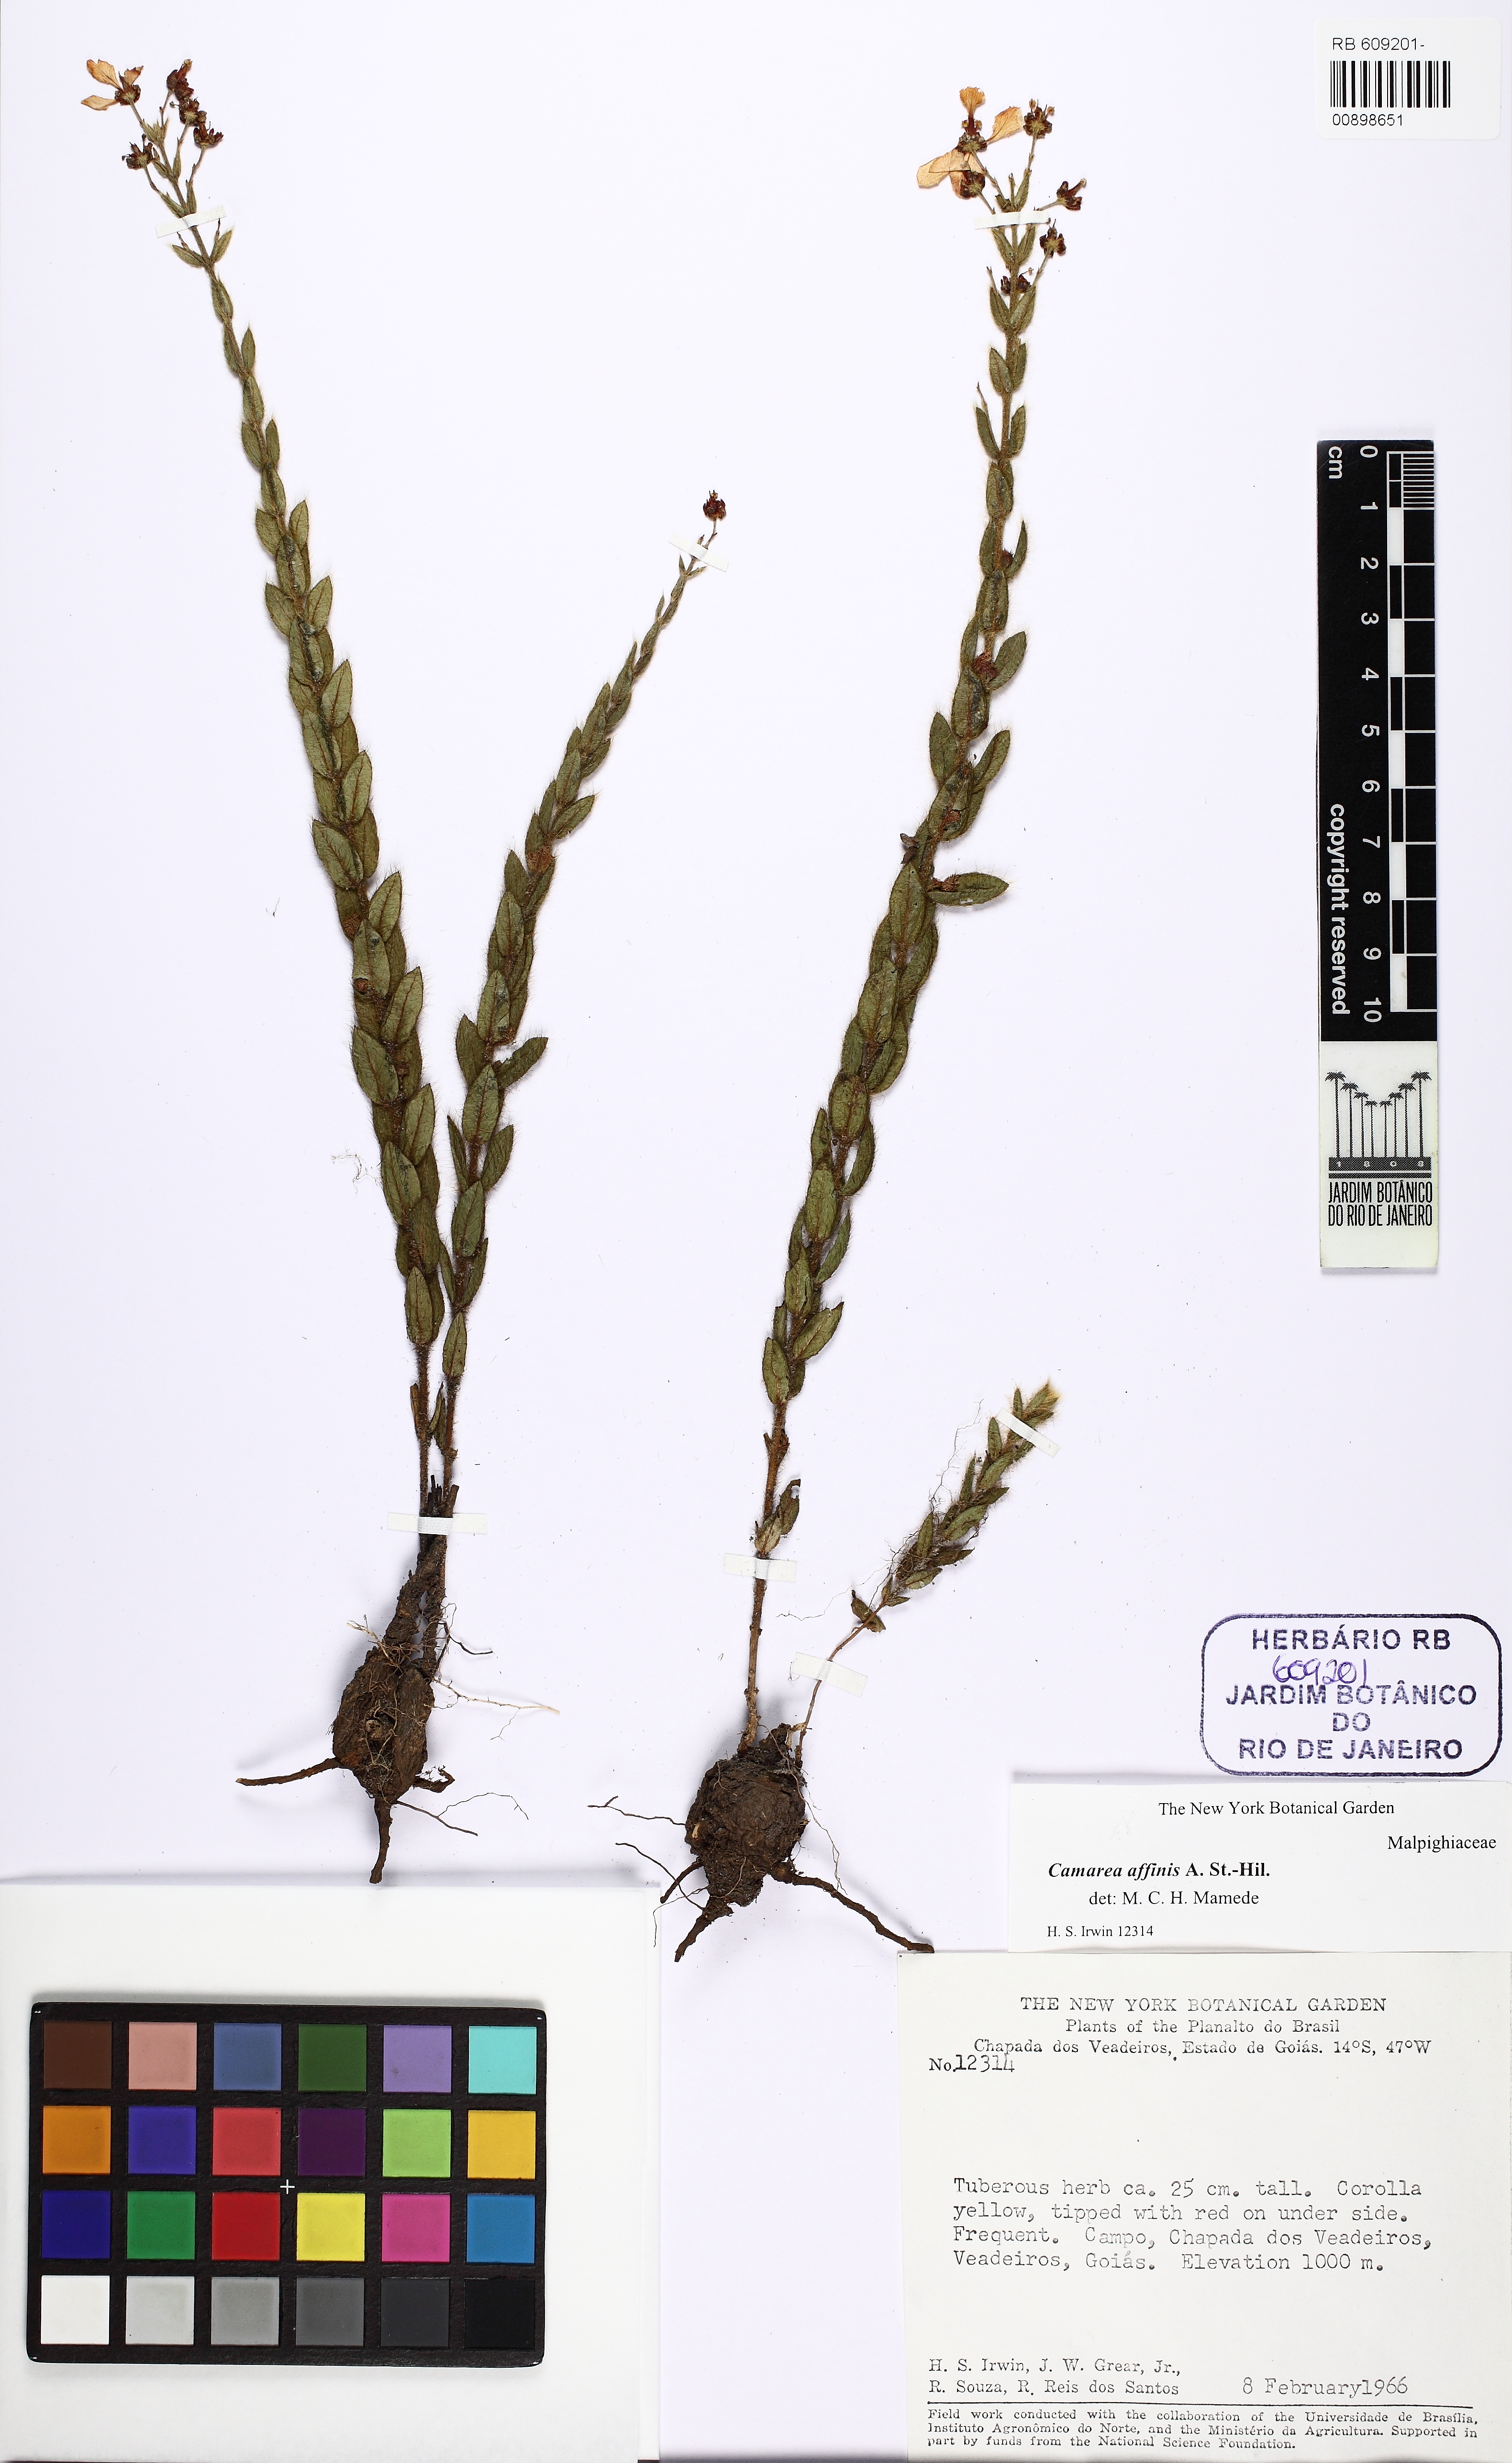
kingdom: Plantae
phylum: Tracheophyta
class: Magnoliopsida
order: Malpighiales
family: Malpighiaceae
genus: Camarea
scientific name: Camarea affinis
